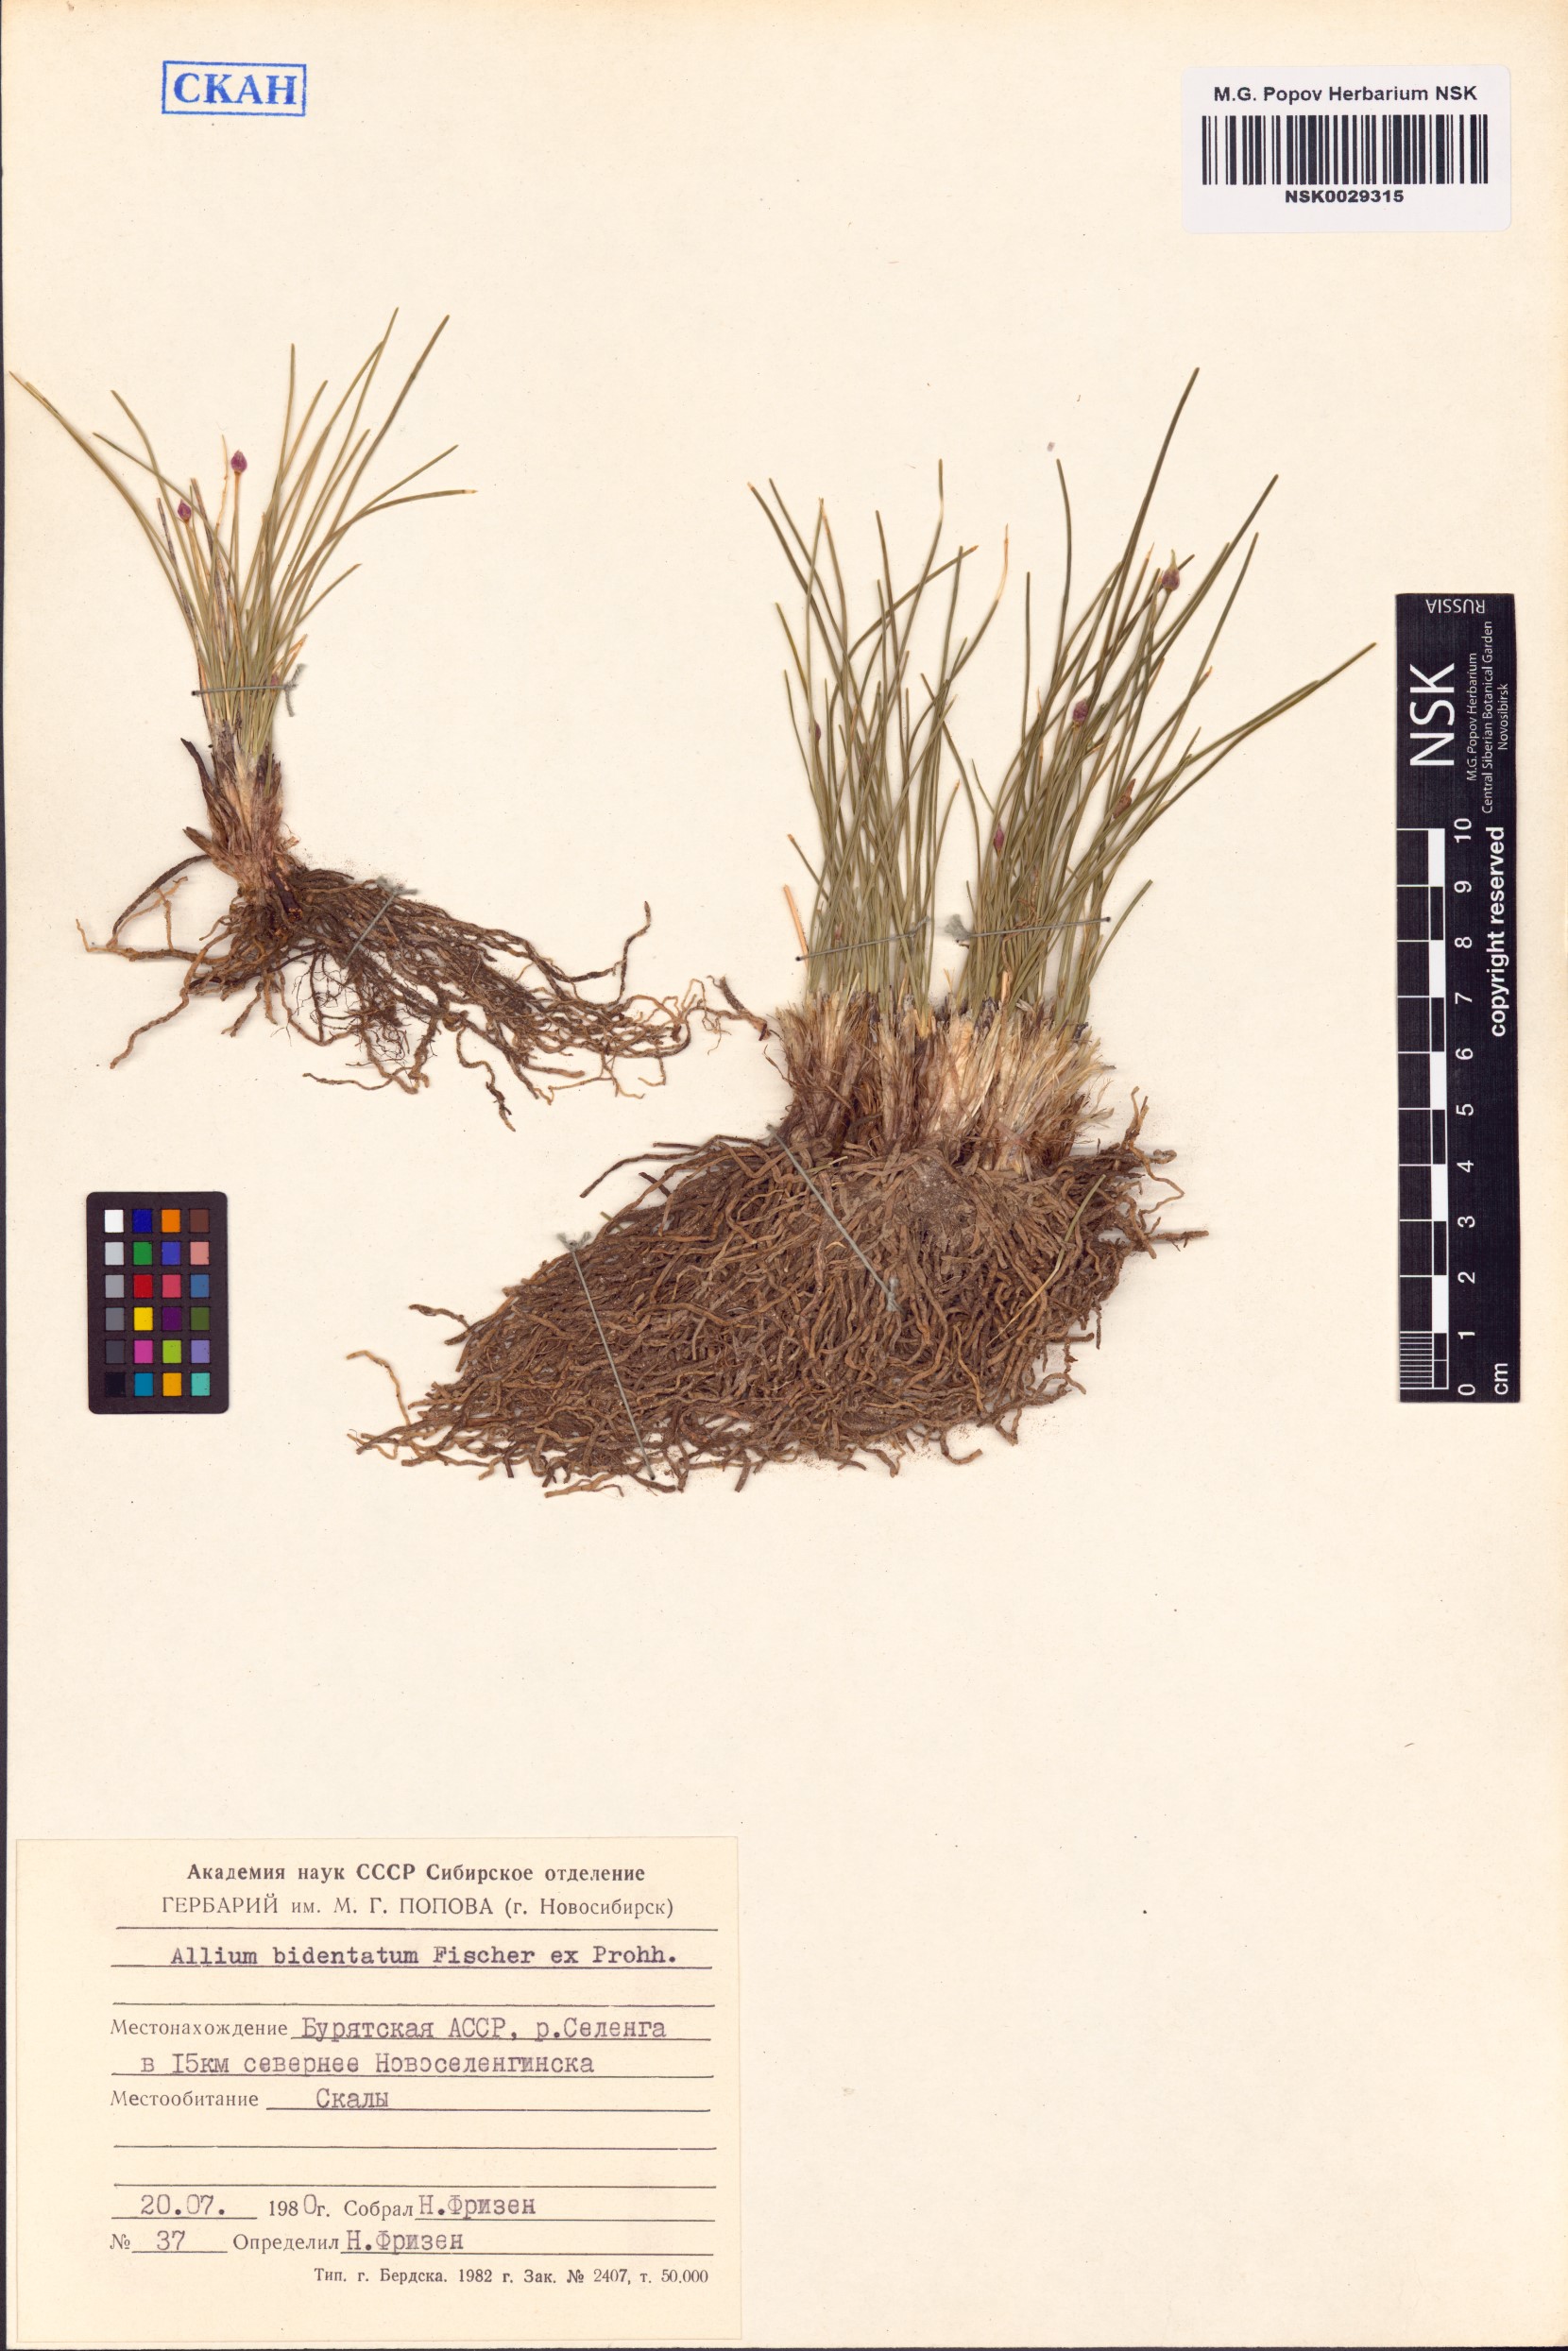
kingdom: Plantae
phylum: Tracheophyta
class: Liliopsida
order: Asparagales
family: Amaryllidaceae
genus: Allium
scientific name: Allium bidentatum
